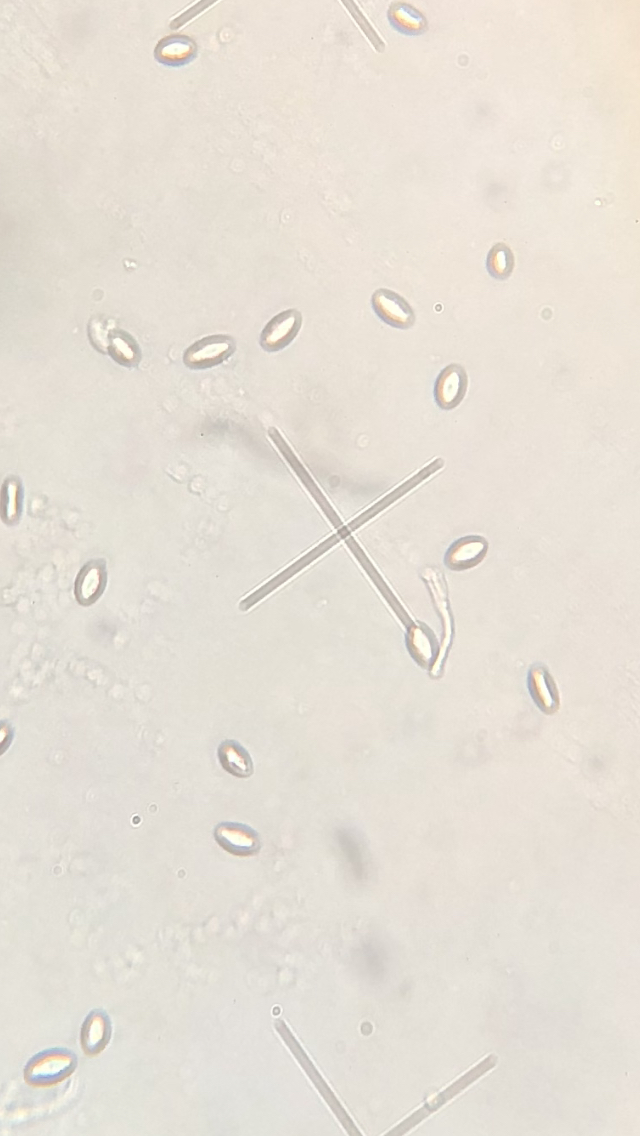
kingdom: Fungi
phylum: Ascomycota
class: Sordariomycetes
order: Hypocreales
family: Clavicipitaceae
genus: Epichloe
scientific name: Epichloe clarkii
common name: fløjlsgræs-kernerør
